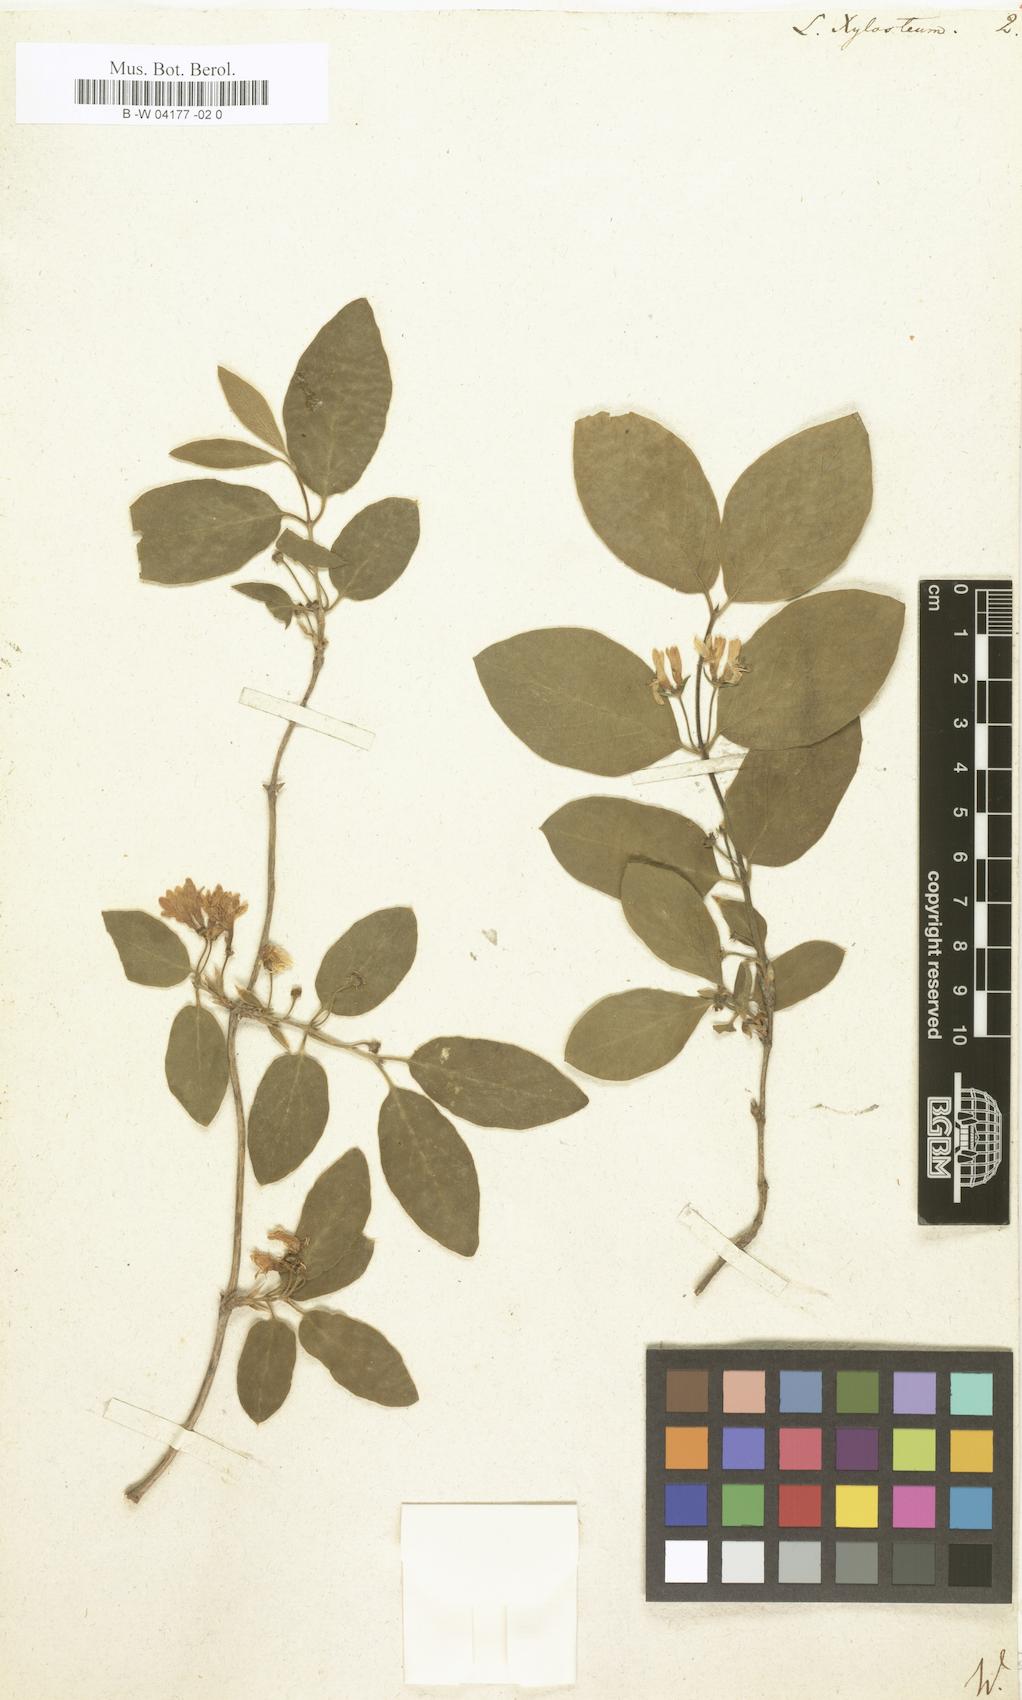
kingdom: Plantae
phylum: Tracheophyta
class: Magnoliopsida
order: Dipsacales
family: Caprifoliaceae
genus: Lonicera
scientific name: Lonicera xylosteum
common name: Fly honeysuckle
